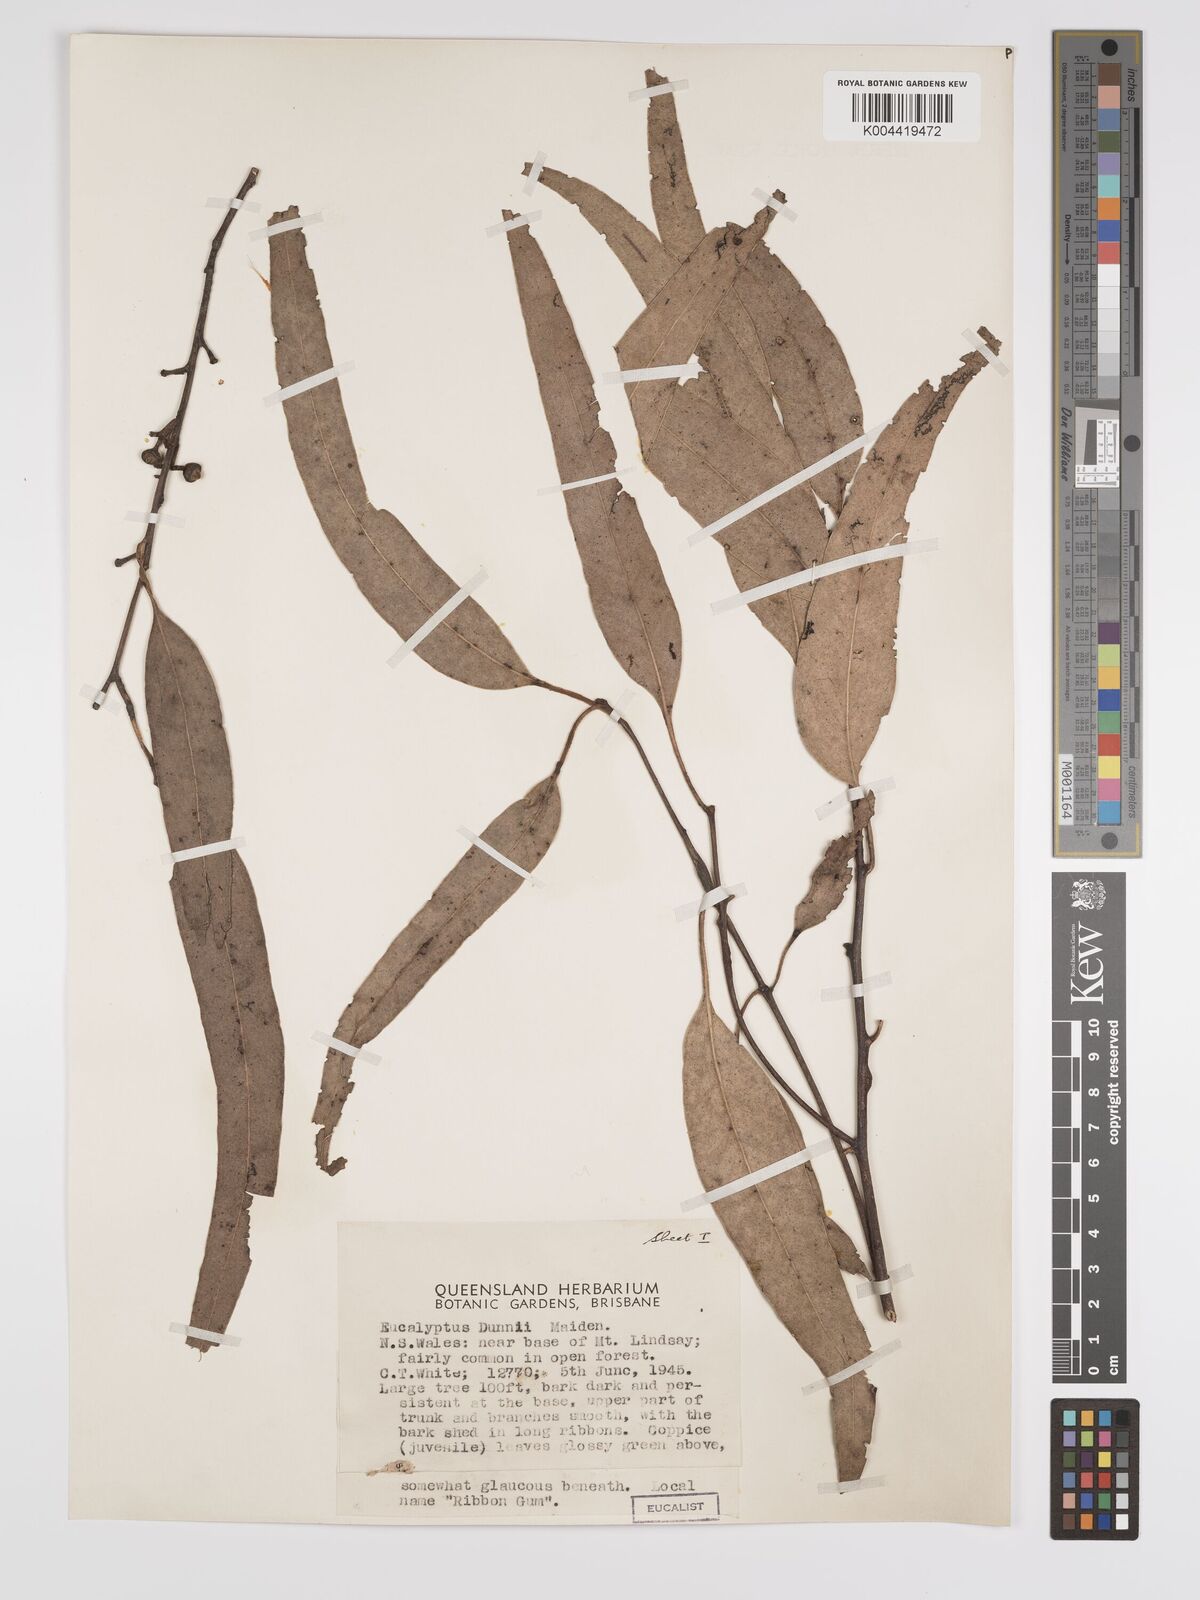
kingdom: Plantae
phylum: Tracheophyta
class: Magnoliopsida
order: Myrtales
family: Myrtaceae
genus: Eucalyptus
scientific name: Eucalyptus dunnii
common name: Dunn's white gum
